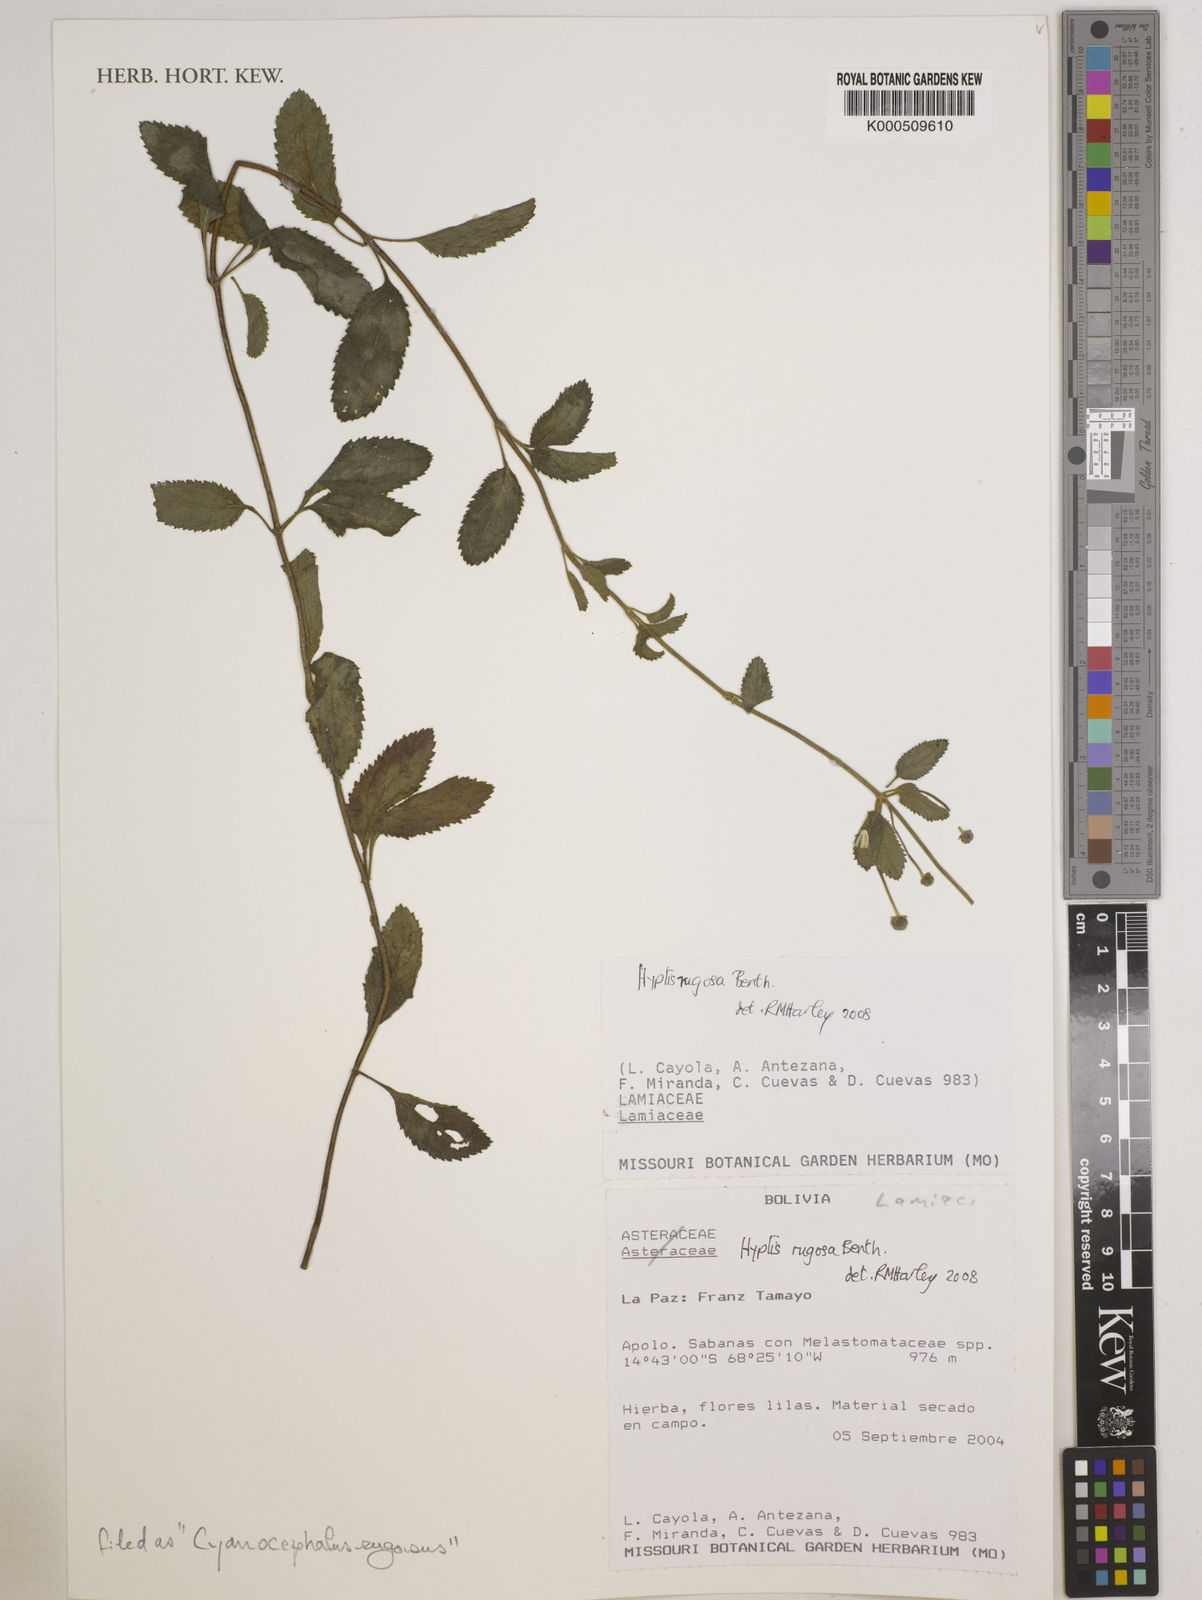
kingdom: Plantae
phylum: Tracheophyta
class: Magnoliopsida
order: Lamiales
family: Lamiaceae
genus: Cyanocephalus
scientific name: Cyanocephalus rugosus
